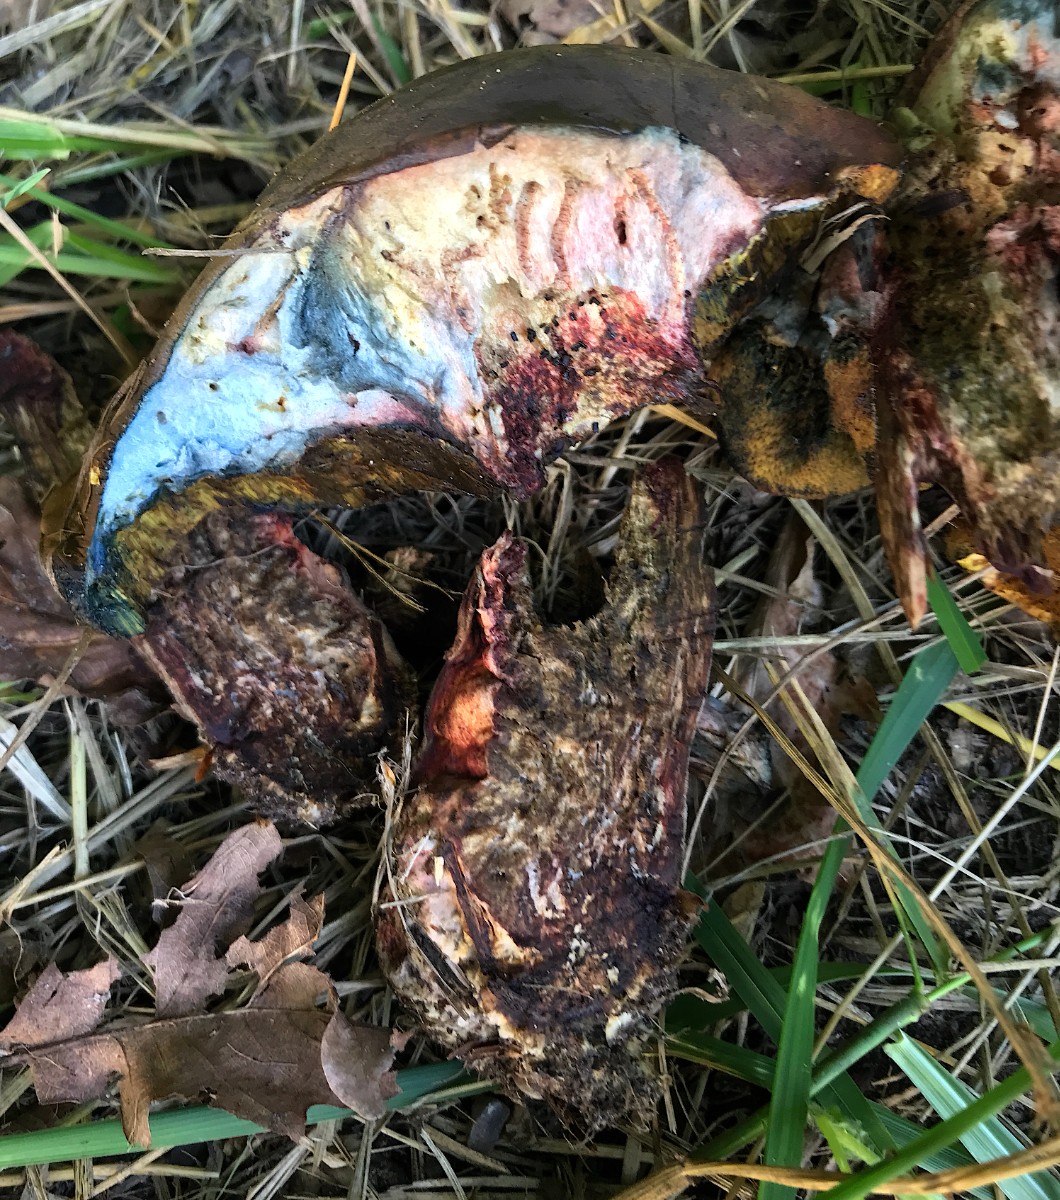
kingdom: Fungi
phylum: Basidiomycota
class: Agaricomycetes
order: Boletales
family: Boletaceae
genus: Suillellus
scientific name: Suillellus luridus
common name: netstokket indigorørhat
